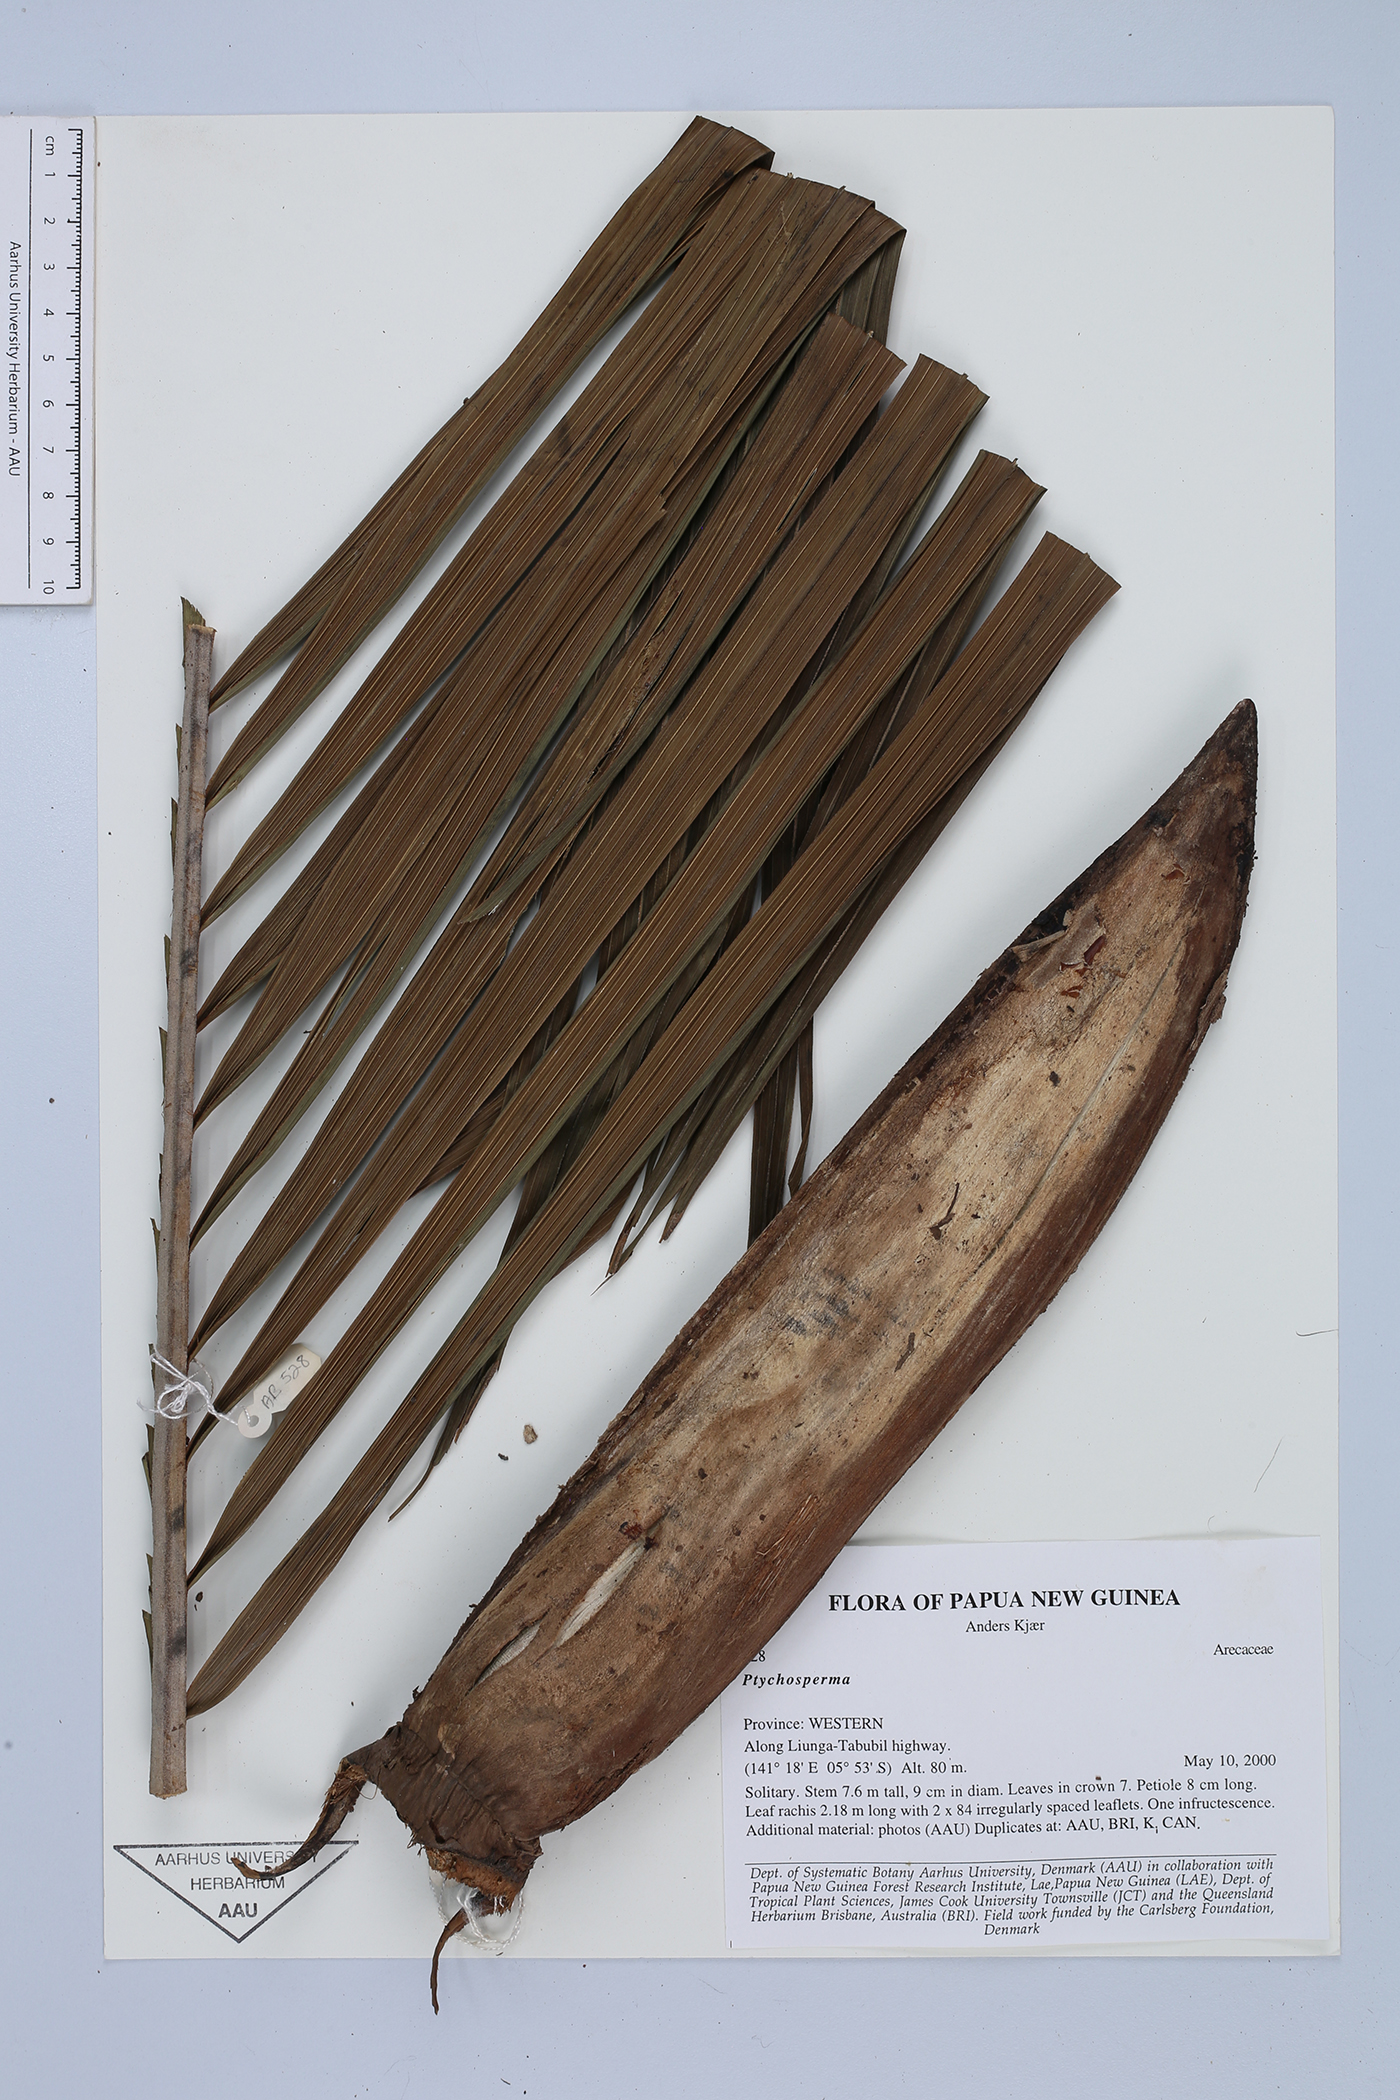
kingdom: Plantae
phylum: Tracheophyta
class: Liliopsida
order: Arecales
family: Arecaceae
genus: Ptychosperma
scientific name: Ptychosperma
